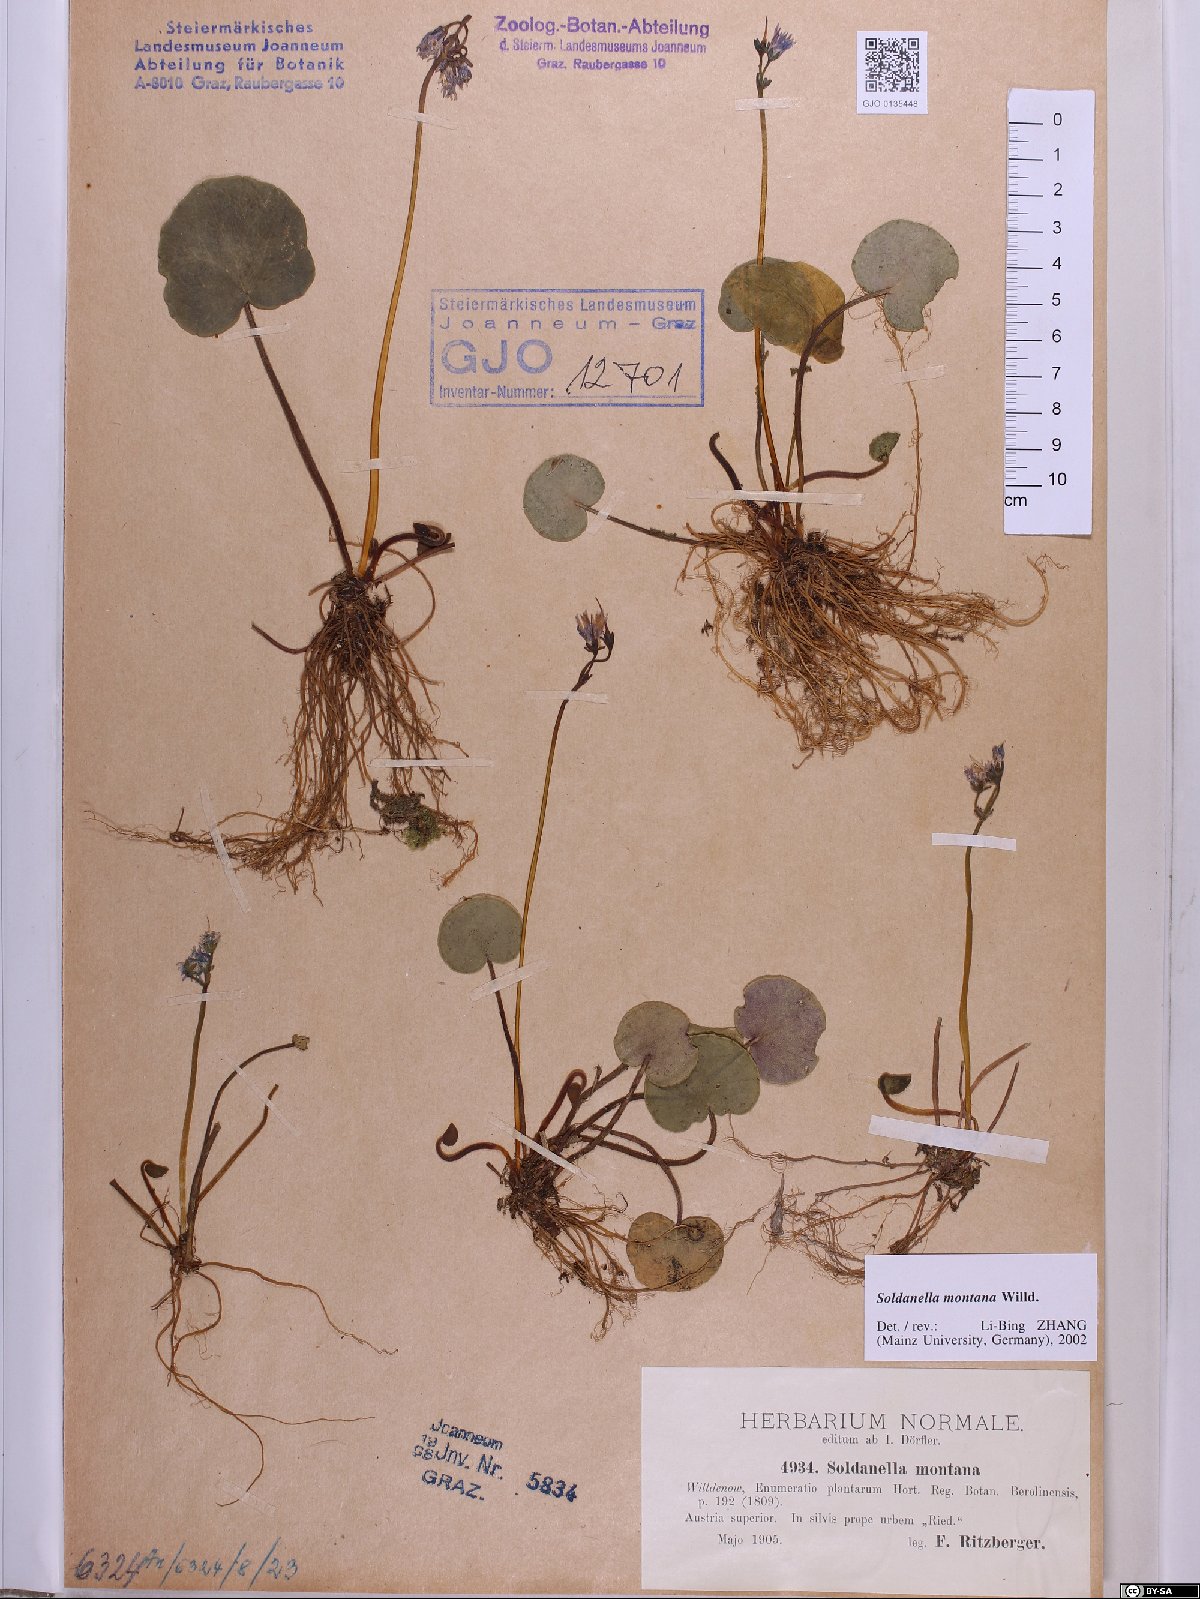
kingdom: Plantae
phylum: Tracheophyta
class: Magnoliopsida
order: Ericales
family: Primulaceae
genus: Soldanella
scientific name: Soldanella montana
